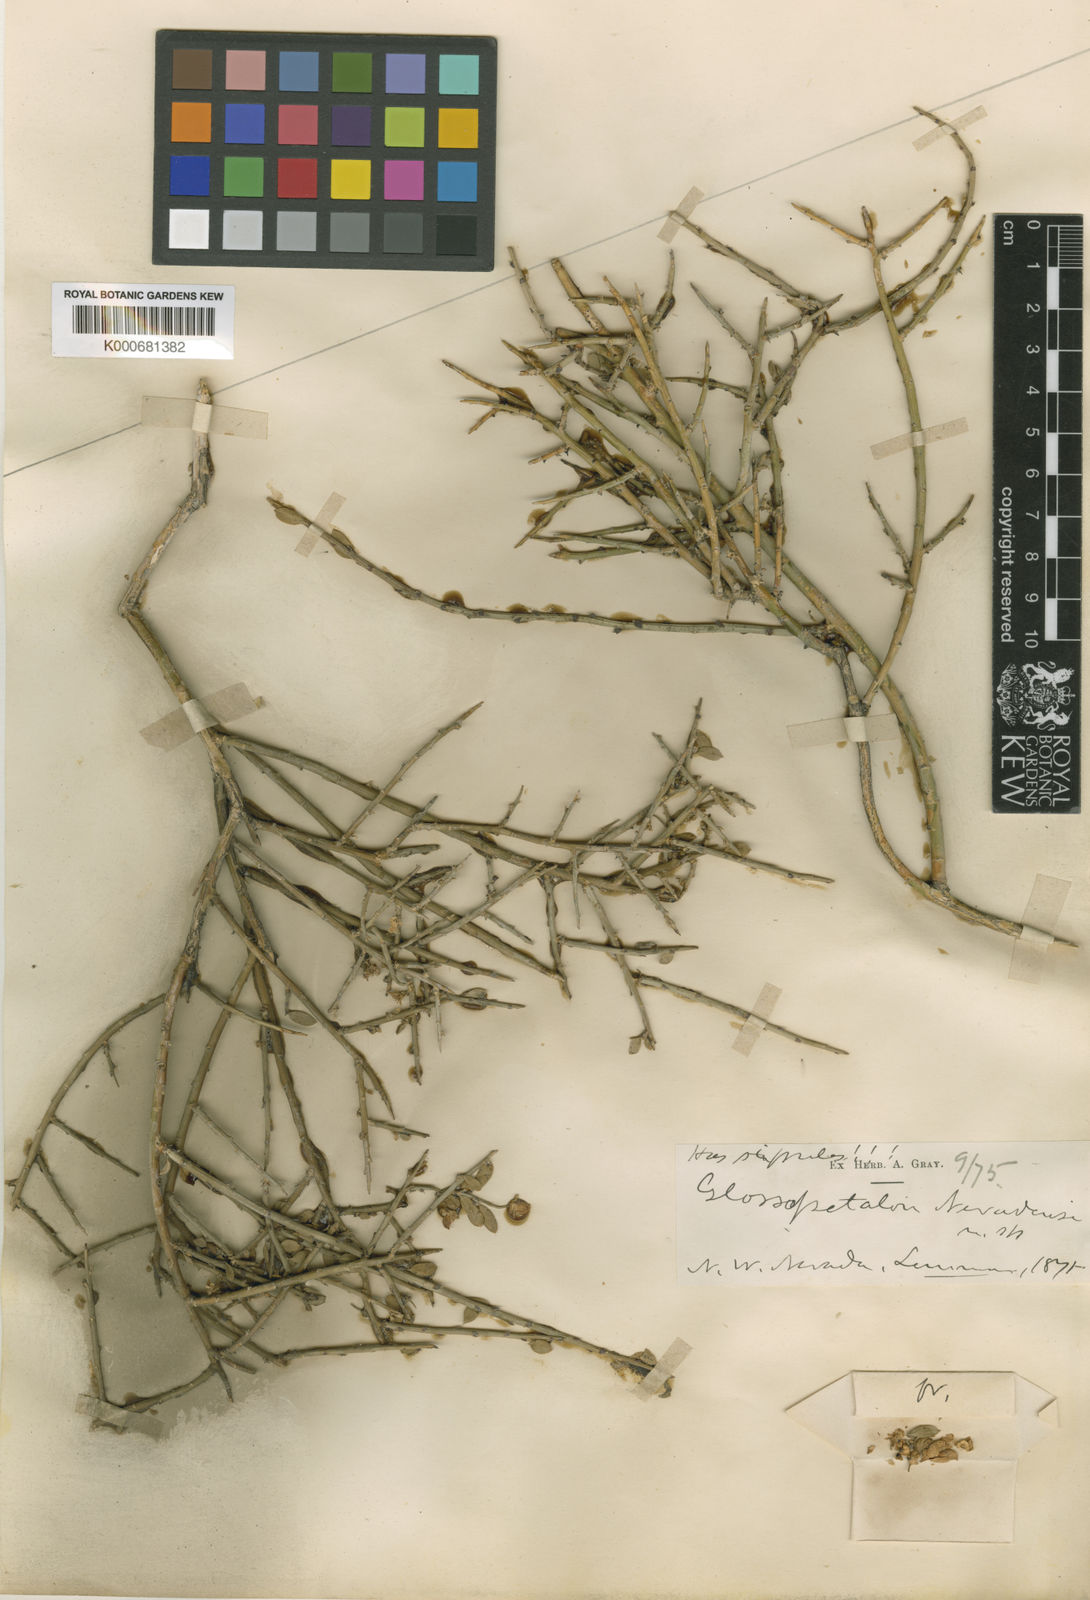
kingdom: Plantae
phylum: Tracheophyta
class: Magnoliopsida
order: Crossosomatales
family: Crossosomataceae
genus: Glossopetalon
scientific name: Glossopetalon spinescens
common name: Spring greasebush
